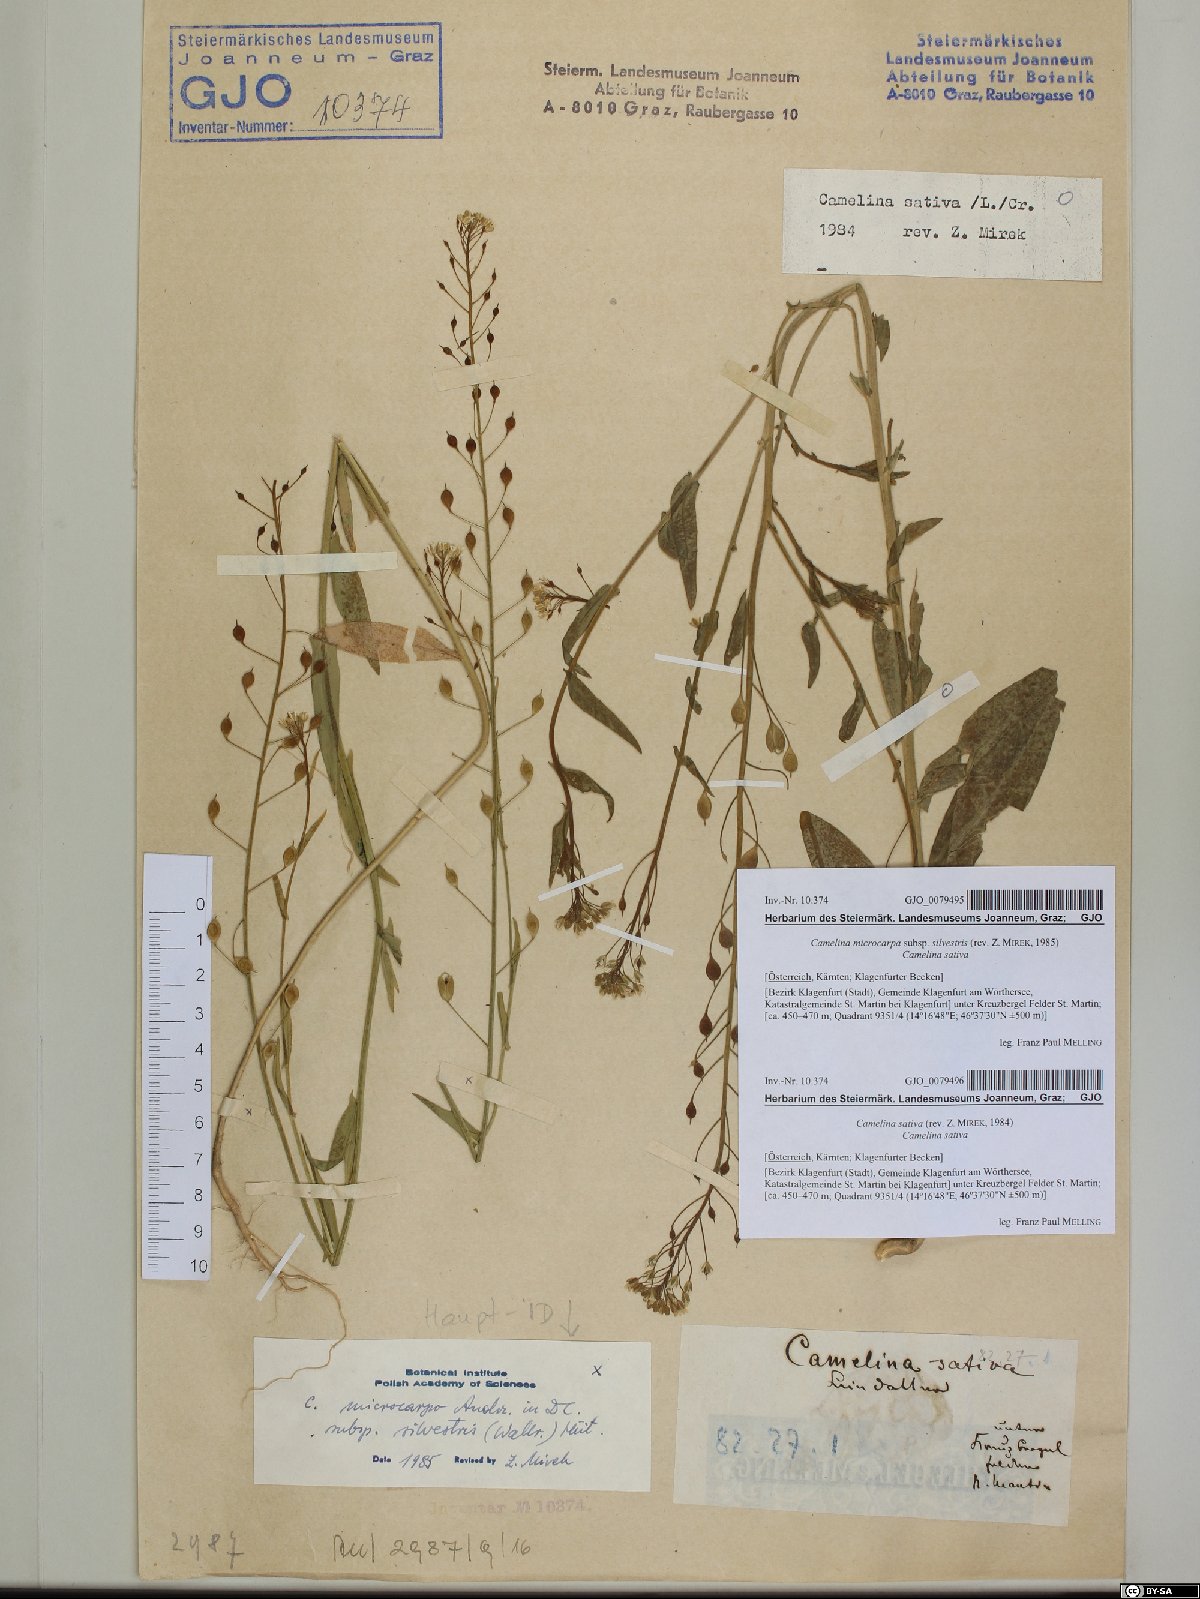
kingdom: Plantae
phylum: Tracheophyta
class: Magnoliopsida
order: Brassicales
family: Brassicaceae
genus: Camelina
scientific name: Camelina microcarpa
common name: Lesser gold-of-pleasure
